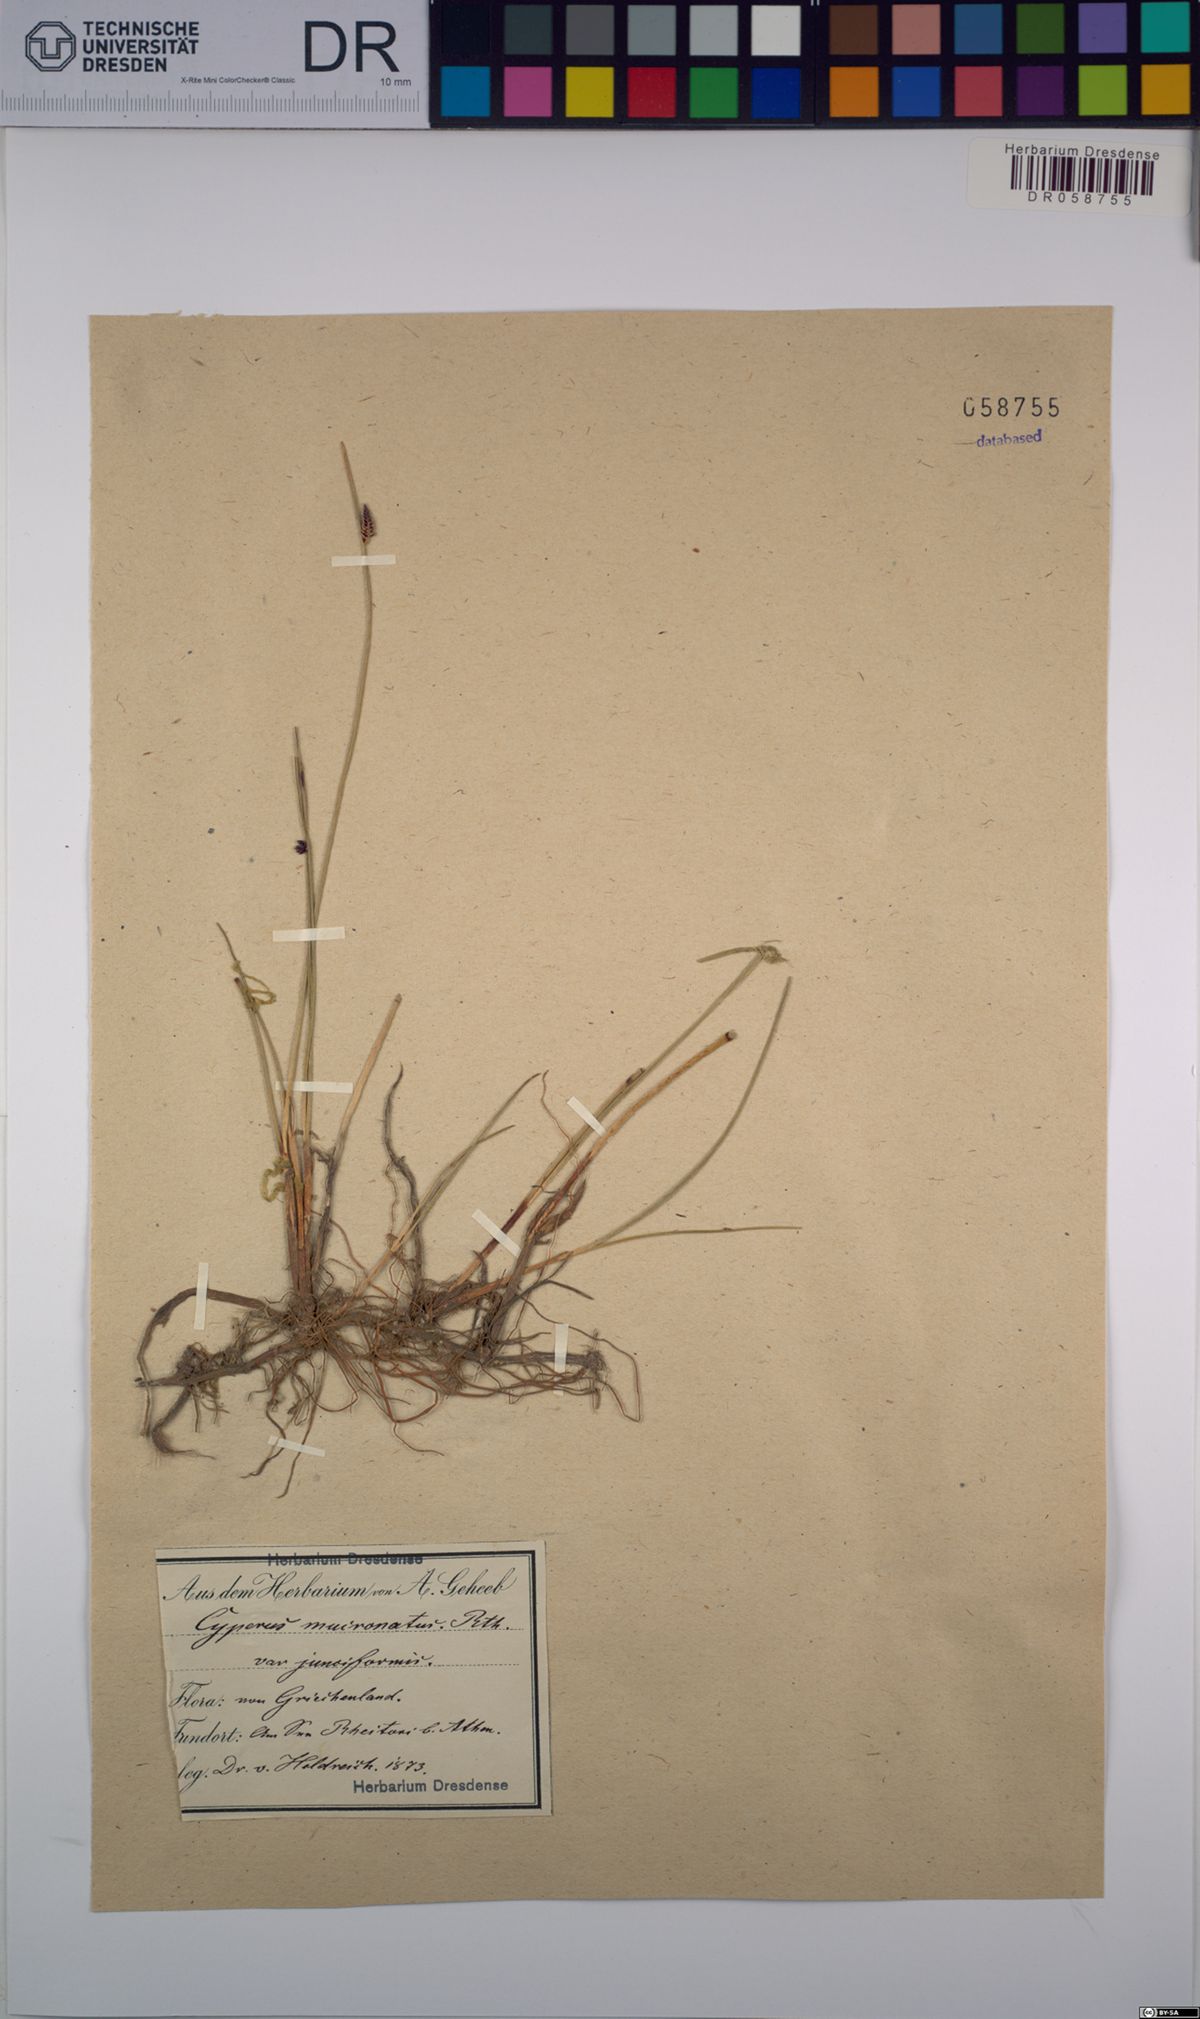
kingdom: Plantae
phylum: Tracheophyta
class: Liliopsida
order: Poales
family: Cyperaceae
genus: Cyperus
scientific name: Cyperus capitatus
